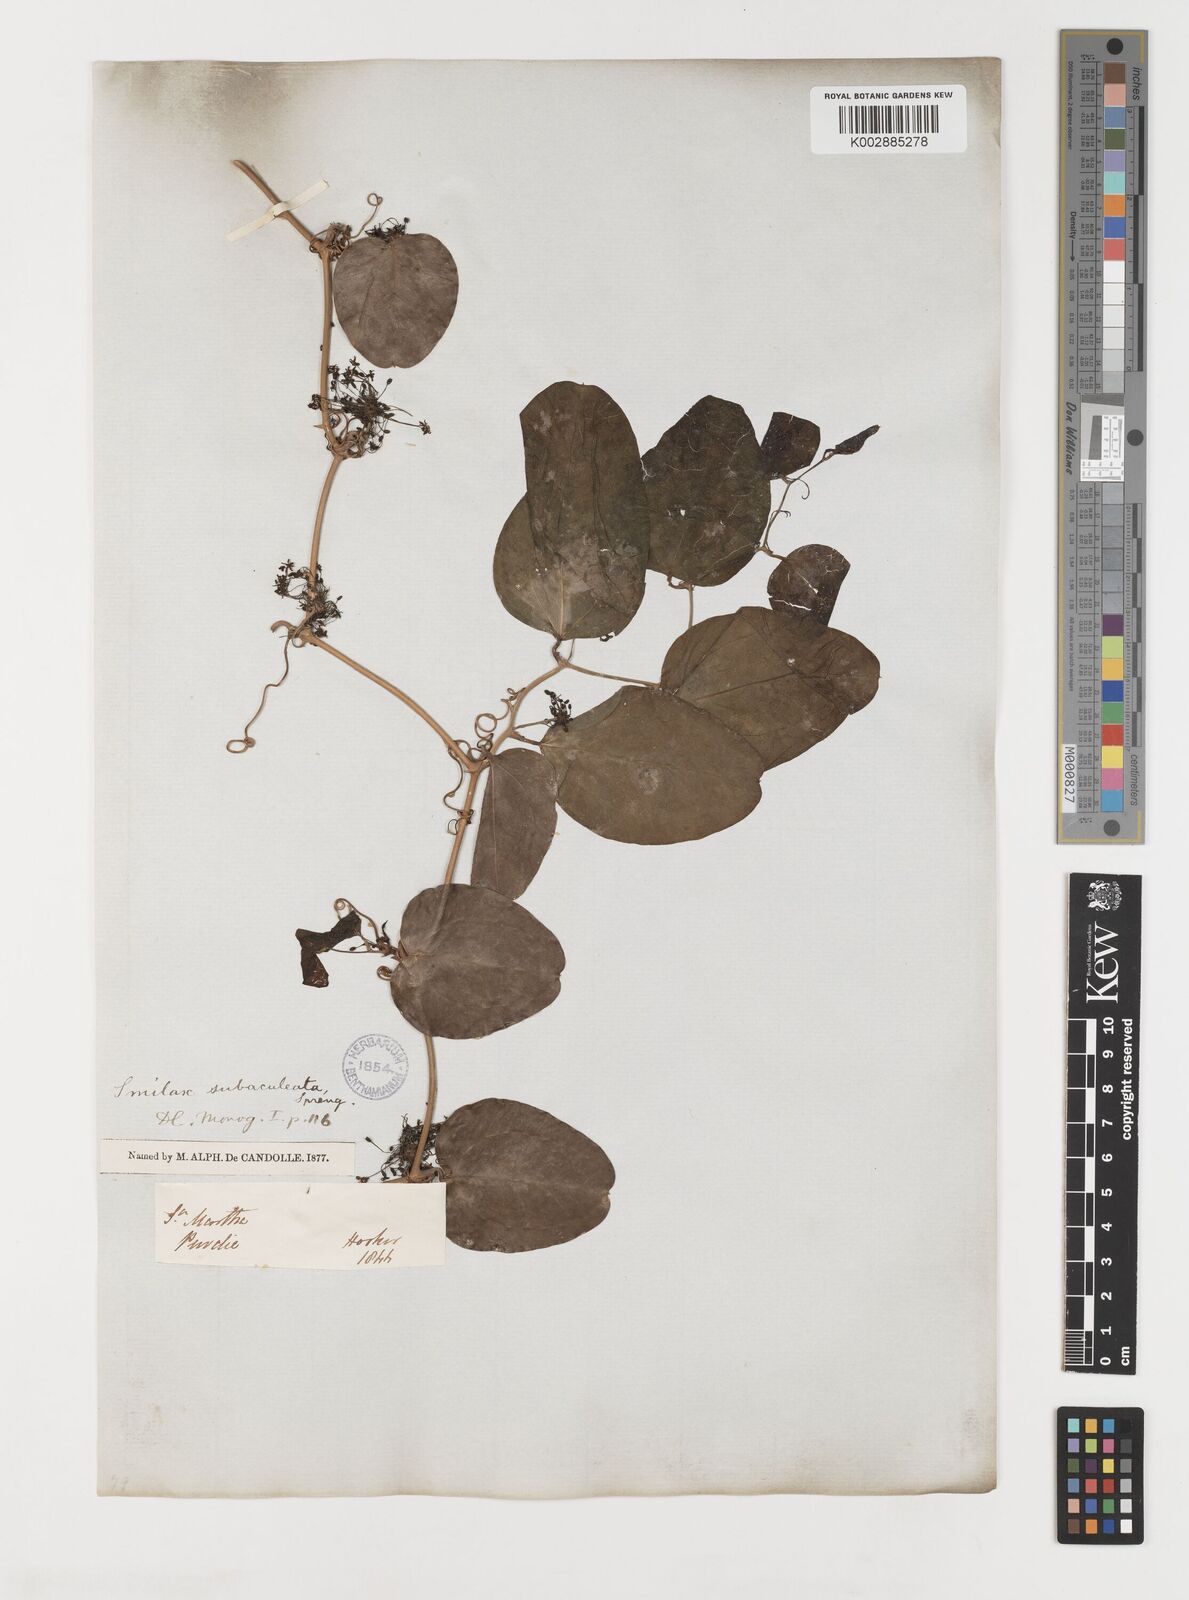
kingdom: Plantae
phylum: Tracheophyta
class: Liliopsida
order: Liliales
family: Smilacaceae
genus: Smilax
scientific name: Smilax canellifolia
